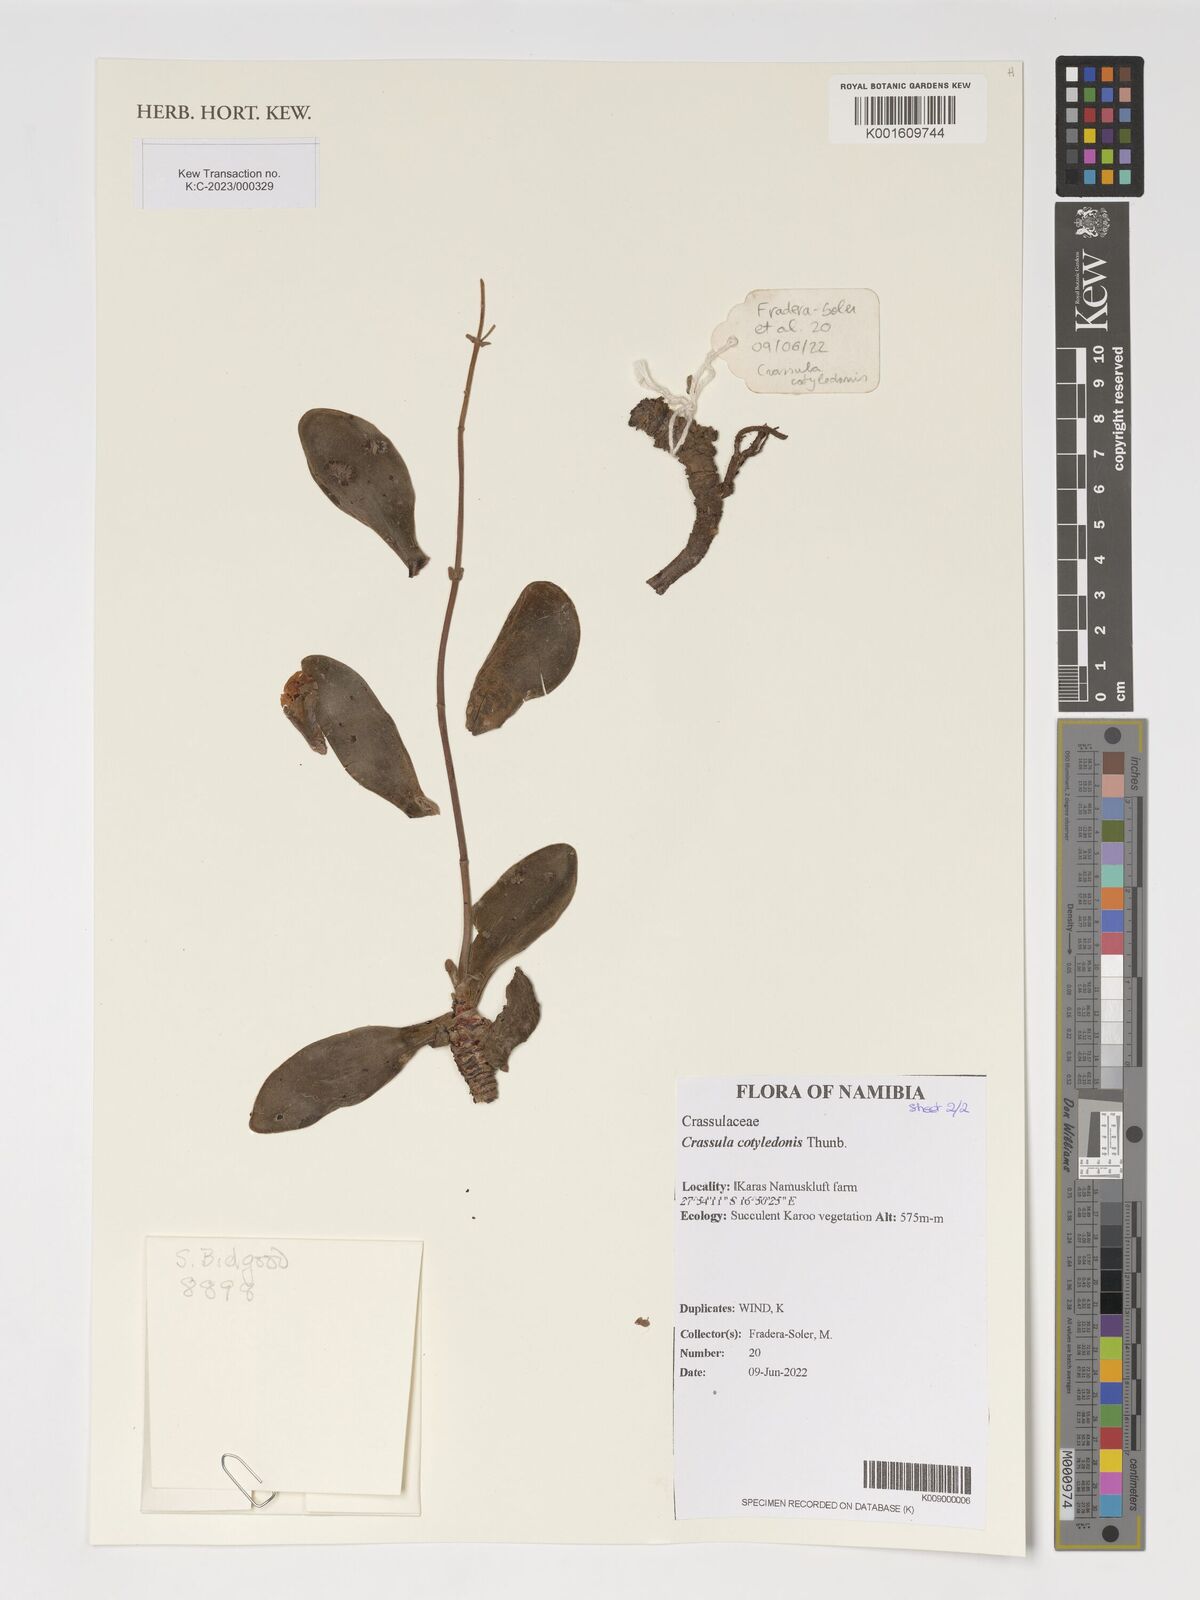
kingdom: Plantae
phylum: Tracheophyta
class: Magnoliopsida
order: Saxifragales
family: Crassulaceae
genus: Crassula
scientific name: Crassula cotyledonis
